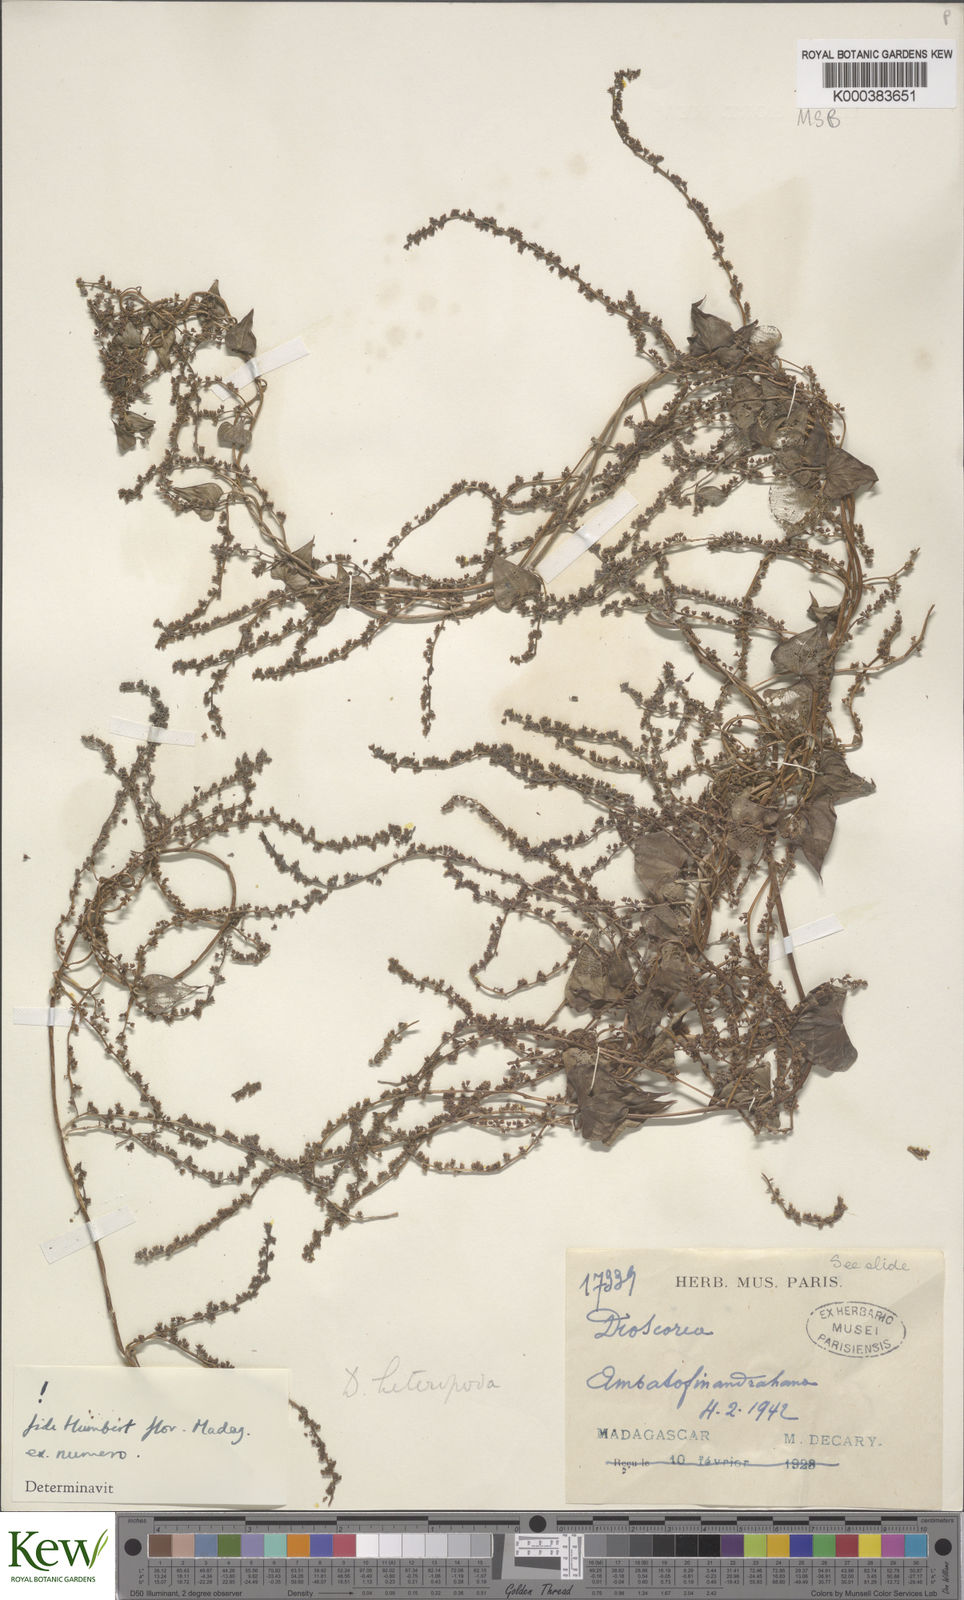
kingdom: Plantae
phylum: Tracheophyta
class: Liliopsida
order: Dioscoreales
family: Dioscoreaceae
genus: Dioscorea
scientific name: Dioscorea heteropoda
